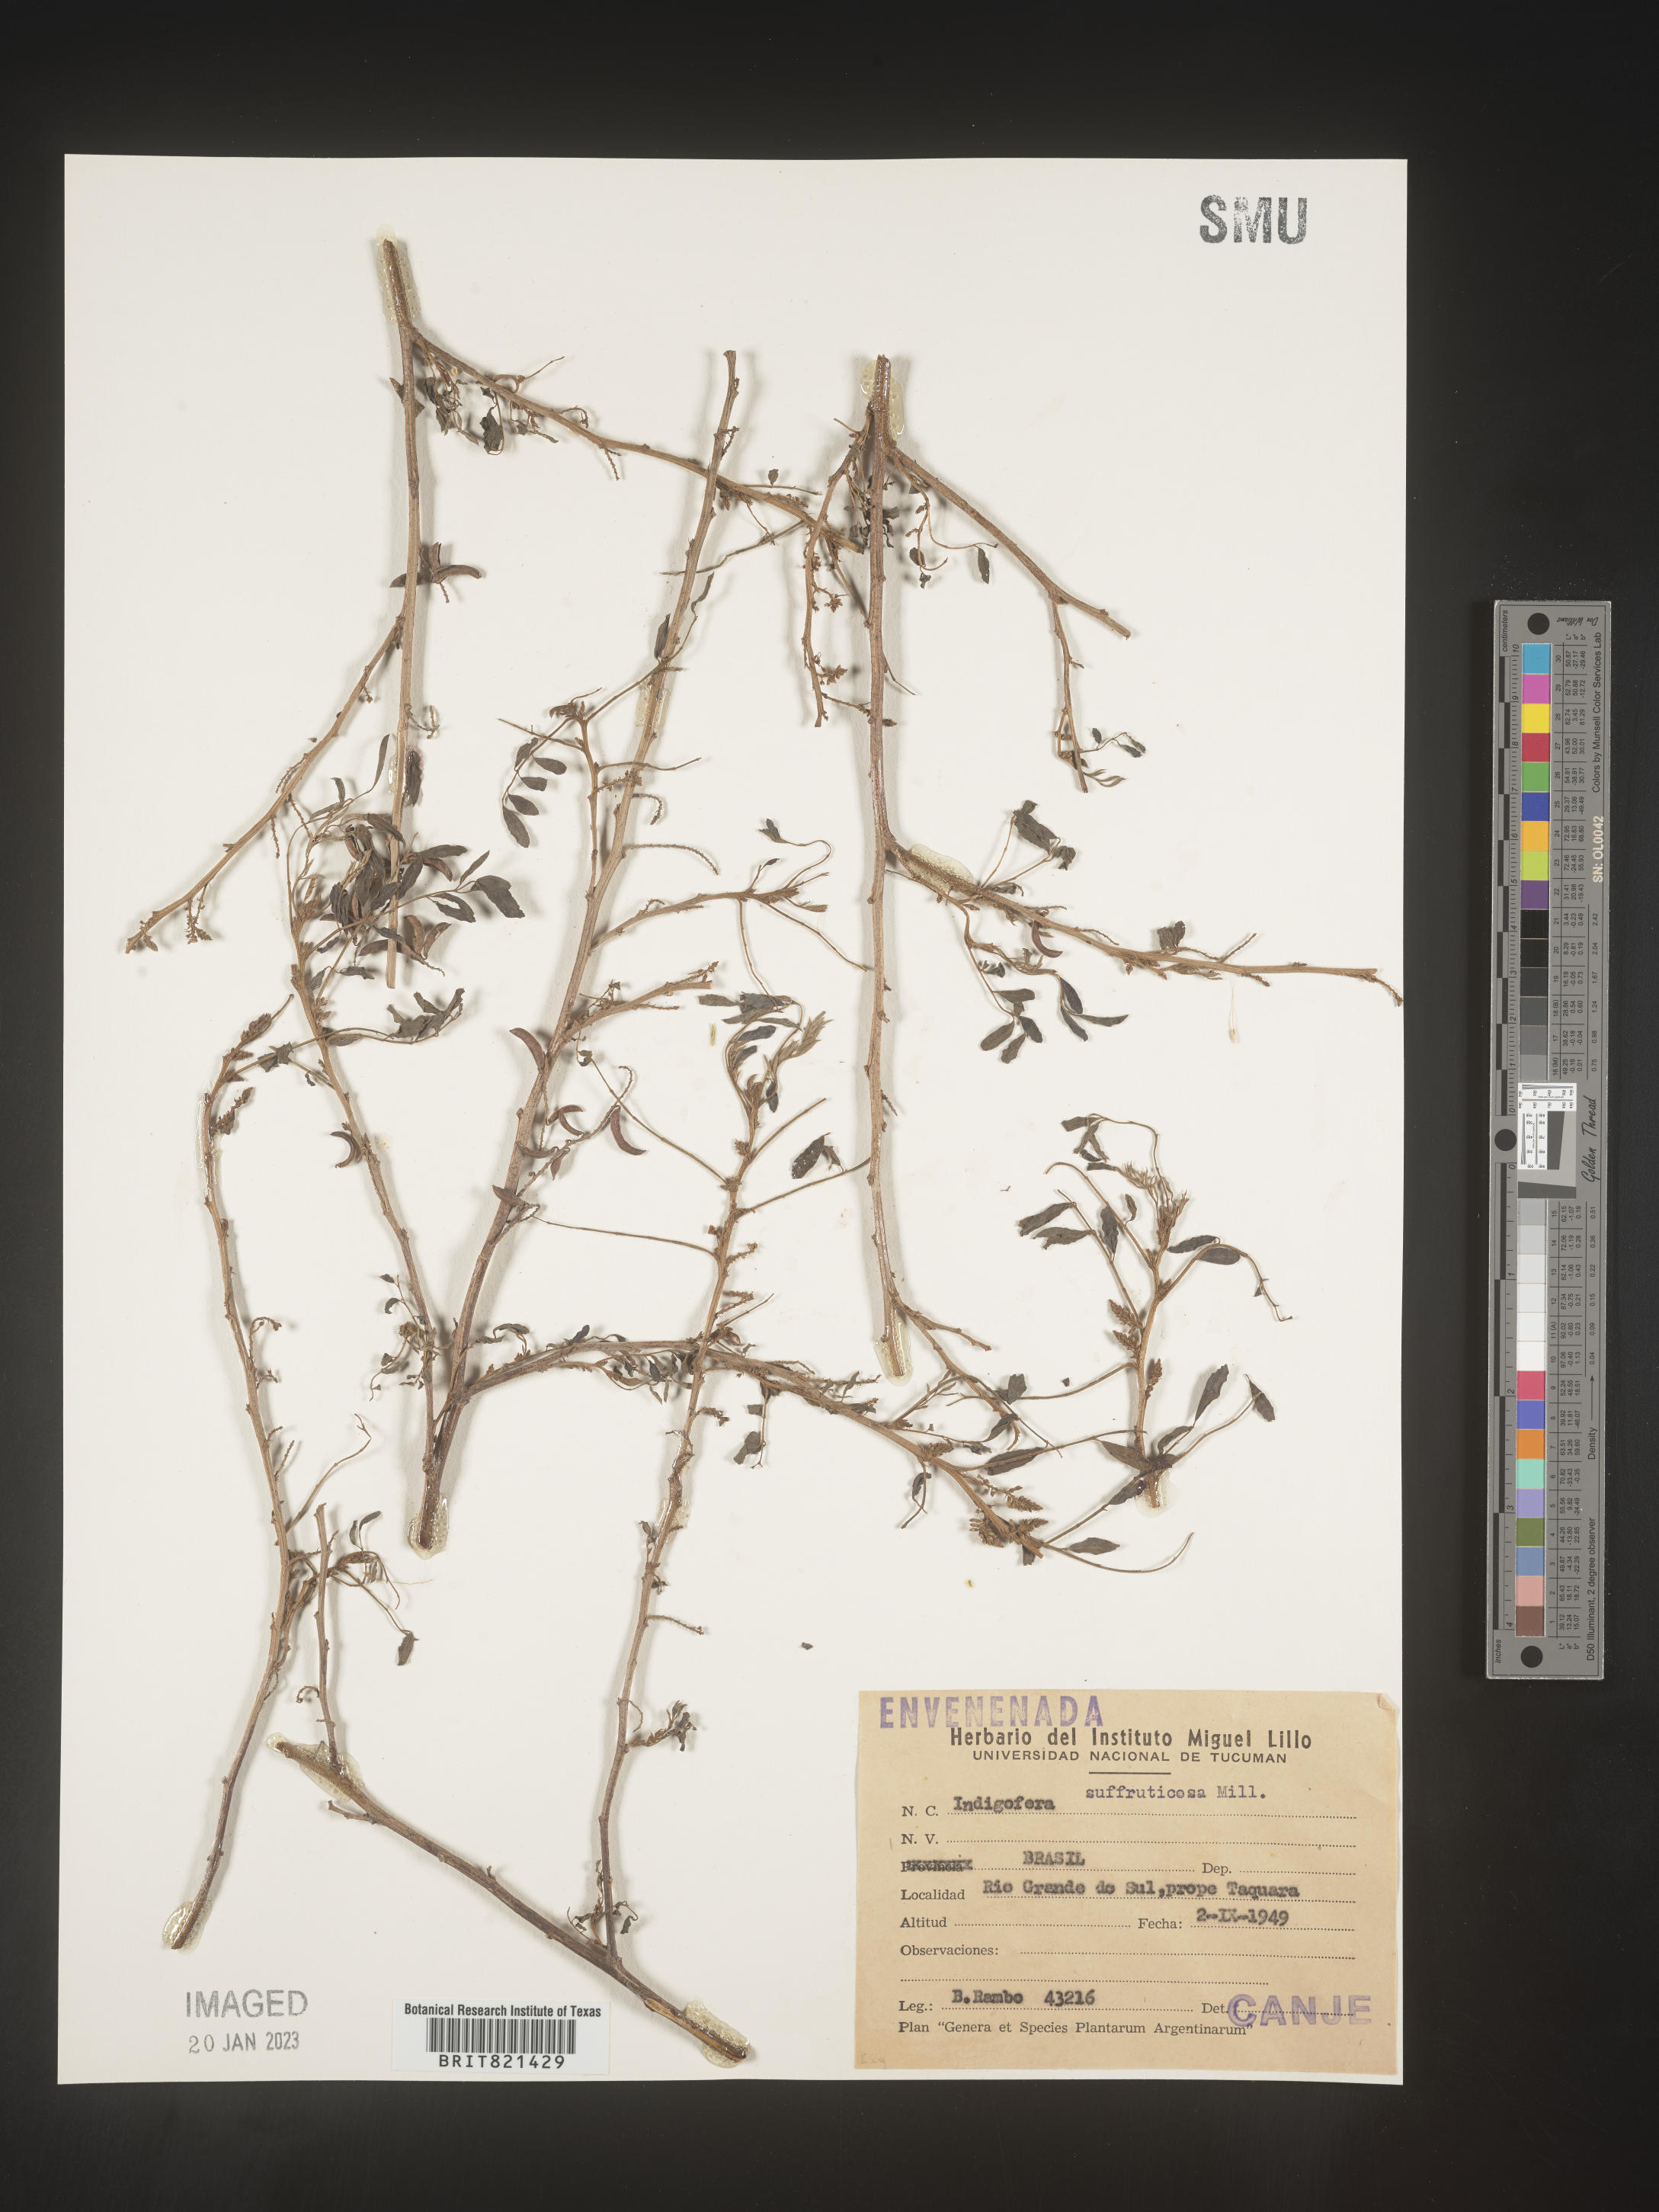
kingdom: Plantae
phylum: Tracheophyta
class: Magnoliopsida
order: Fabales
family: Fabaceae
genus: Indigofera
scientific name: Indigofera
